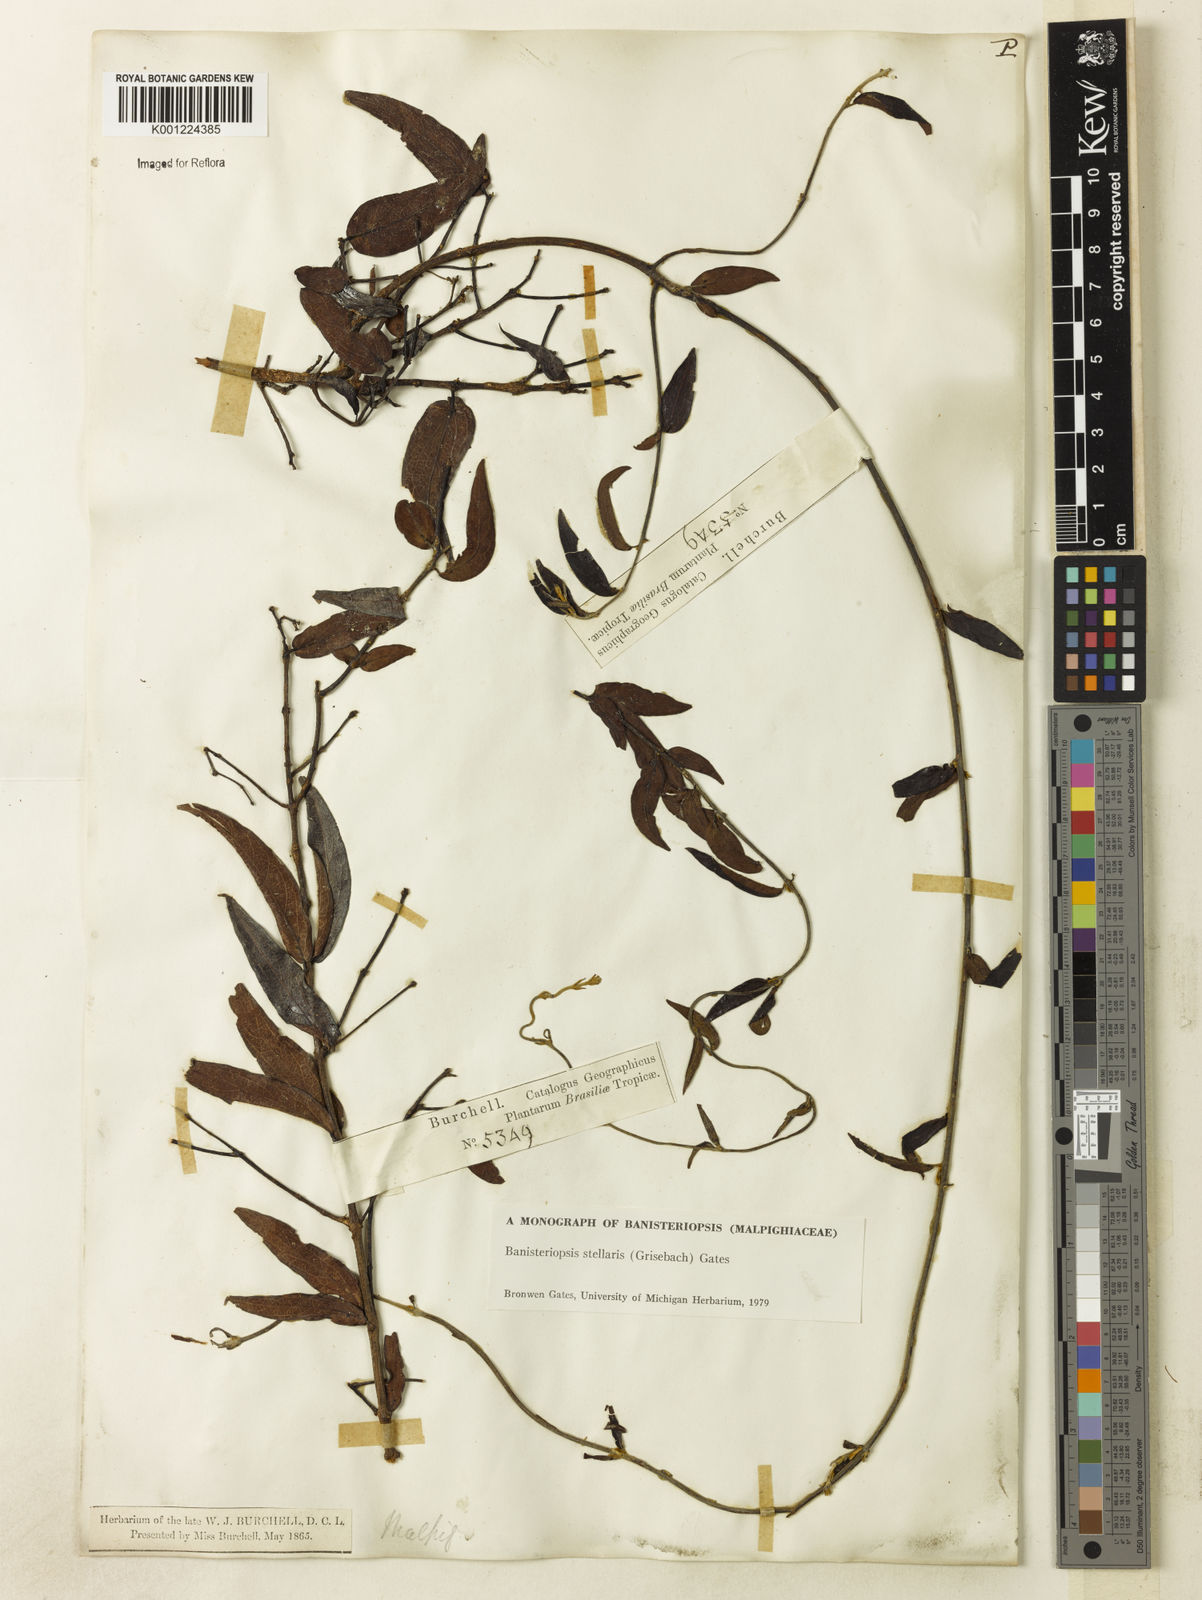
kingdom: Plantae
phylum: Tracheophyta
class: Magnoliopsida
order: Malpighiales
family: Malpighiaceae
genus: Banisteriopsis
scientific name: Banisteriopsis stellaris
